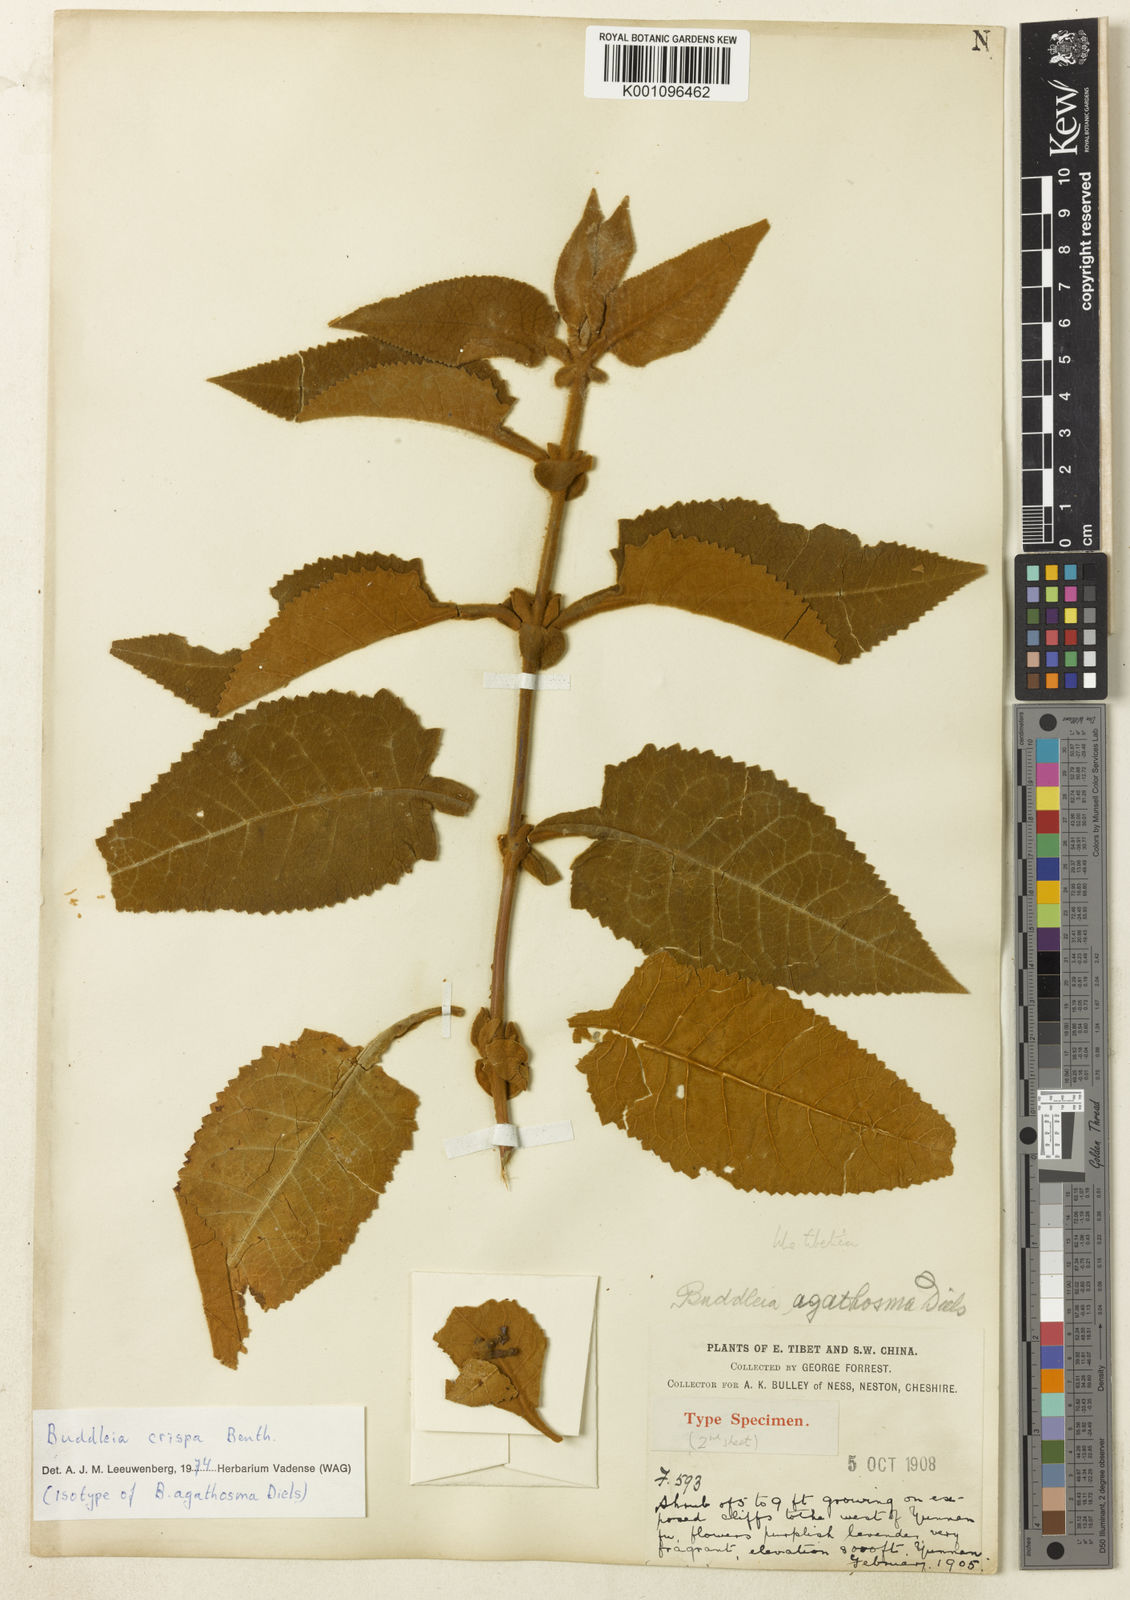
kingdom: Plantae
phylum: Tracheophyta
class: Magnoliopsida
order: Lamiales
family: Scrophulariaceae
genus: Buddleja
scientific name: Buddleja crispa
